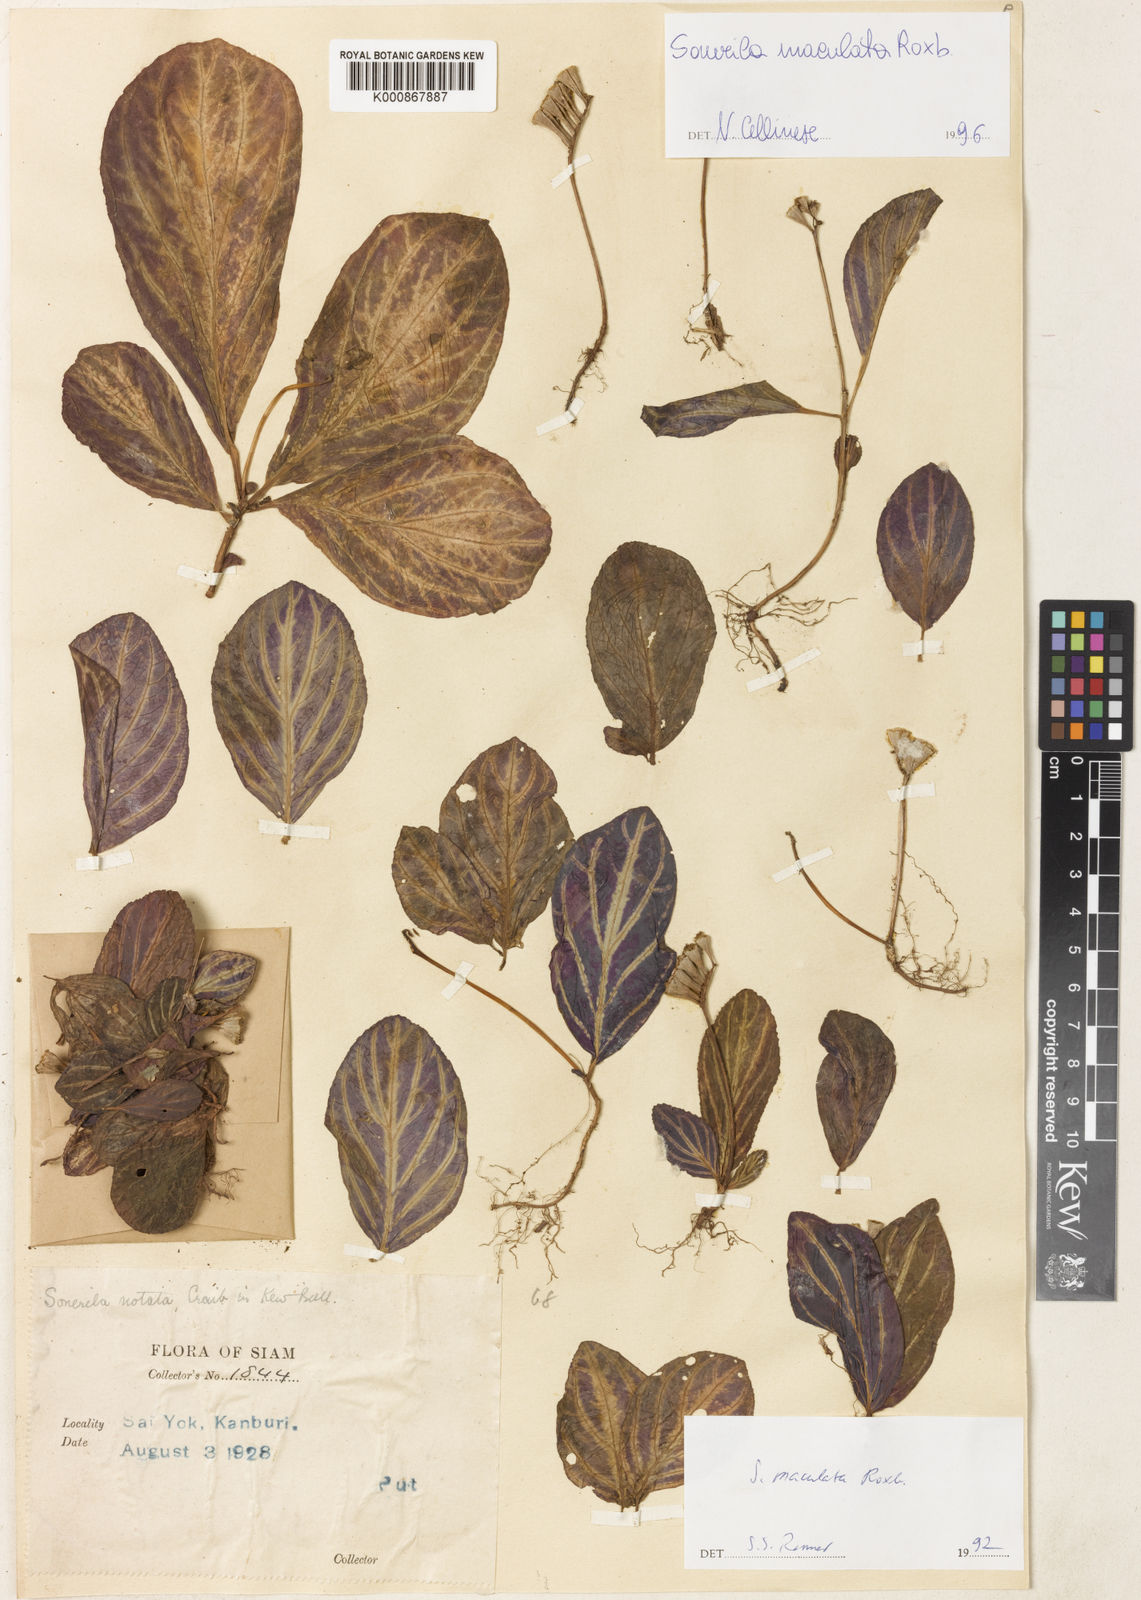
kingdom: Plantae
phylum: Tracheophyta
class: Magnoliopsida
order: Myrtales
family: Melastomataceae
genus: Sonerila
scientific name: Sonerila maculata
